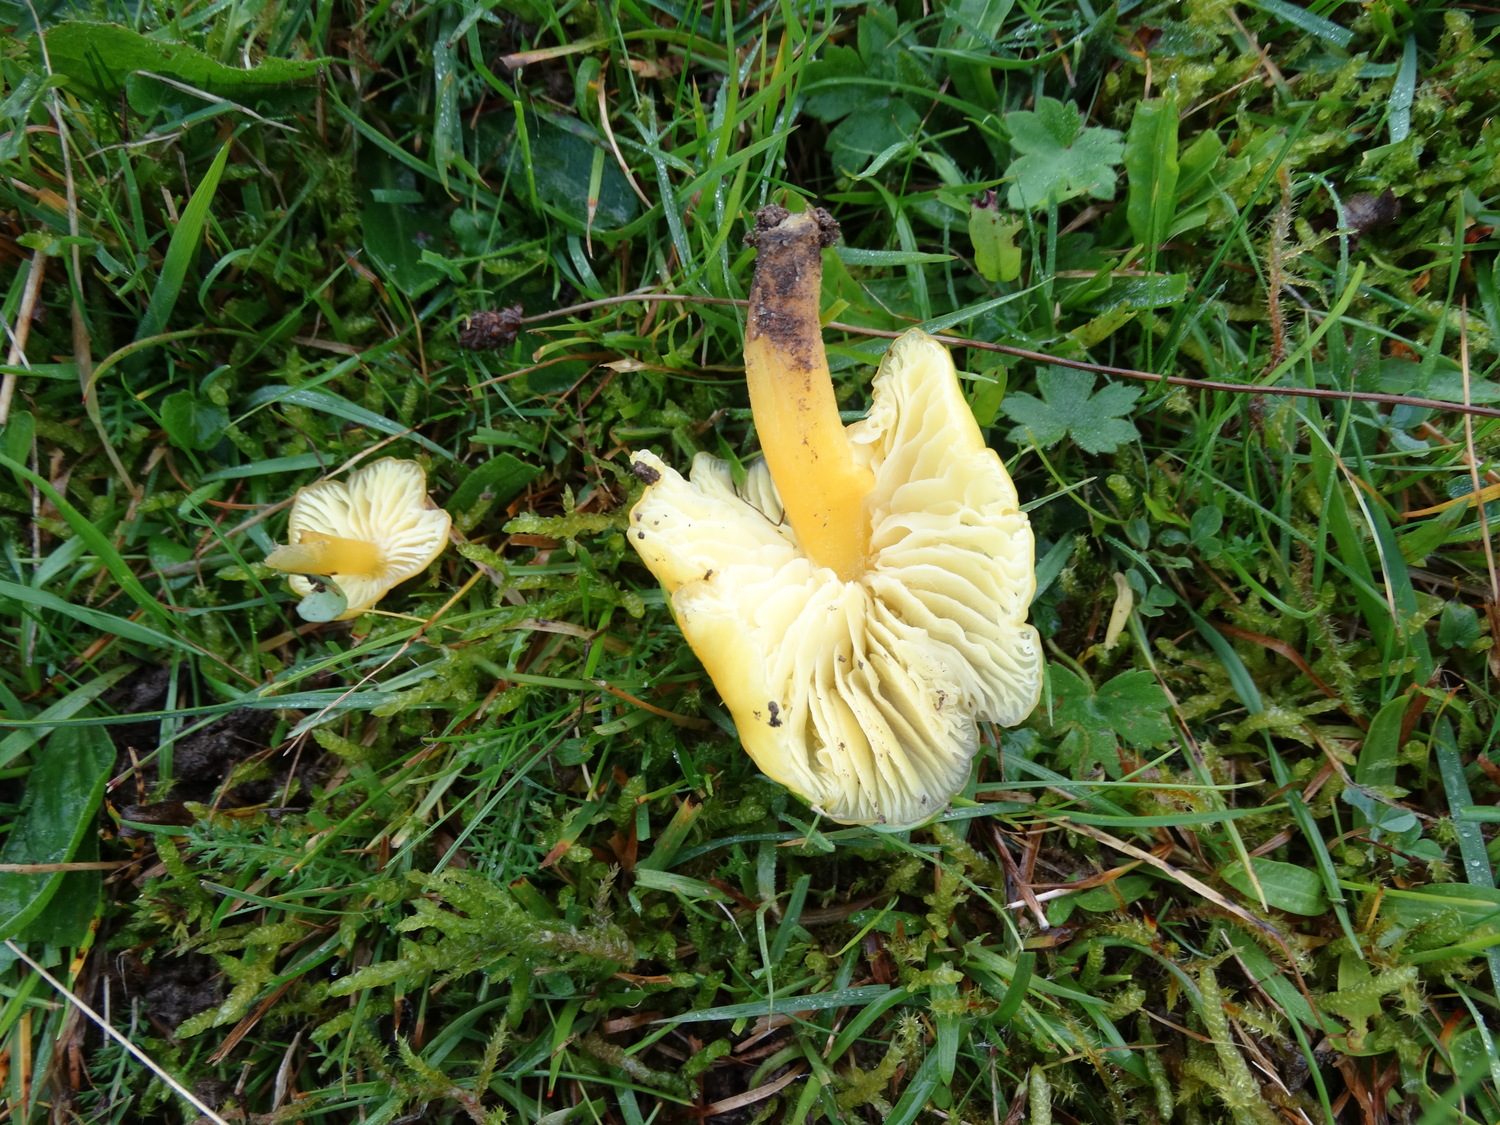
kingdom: Fungi
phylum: Basidiomycota
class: Agaricomycetes
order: Agaricales
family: Hygrophoraceae
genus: Hygrocybe
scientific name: Hygrocybe chlorophana
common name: gul vokshat
